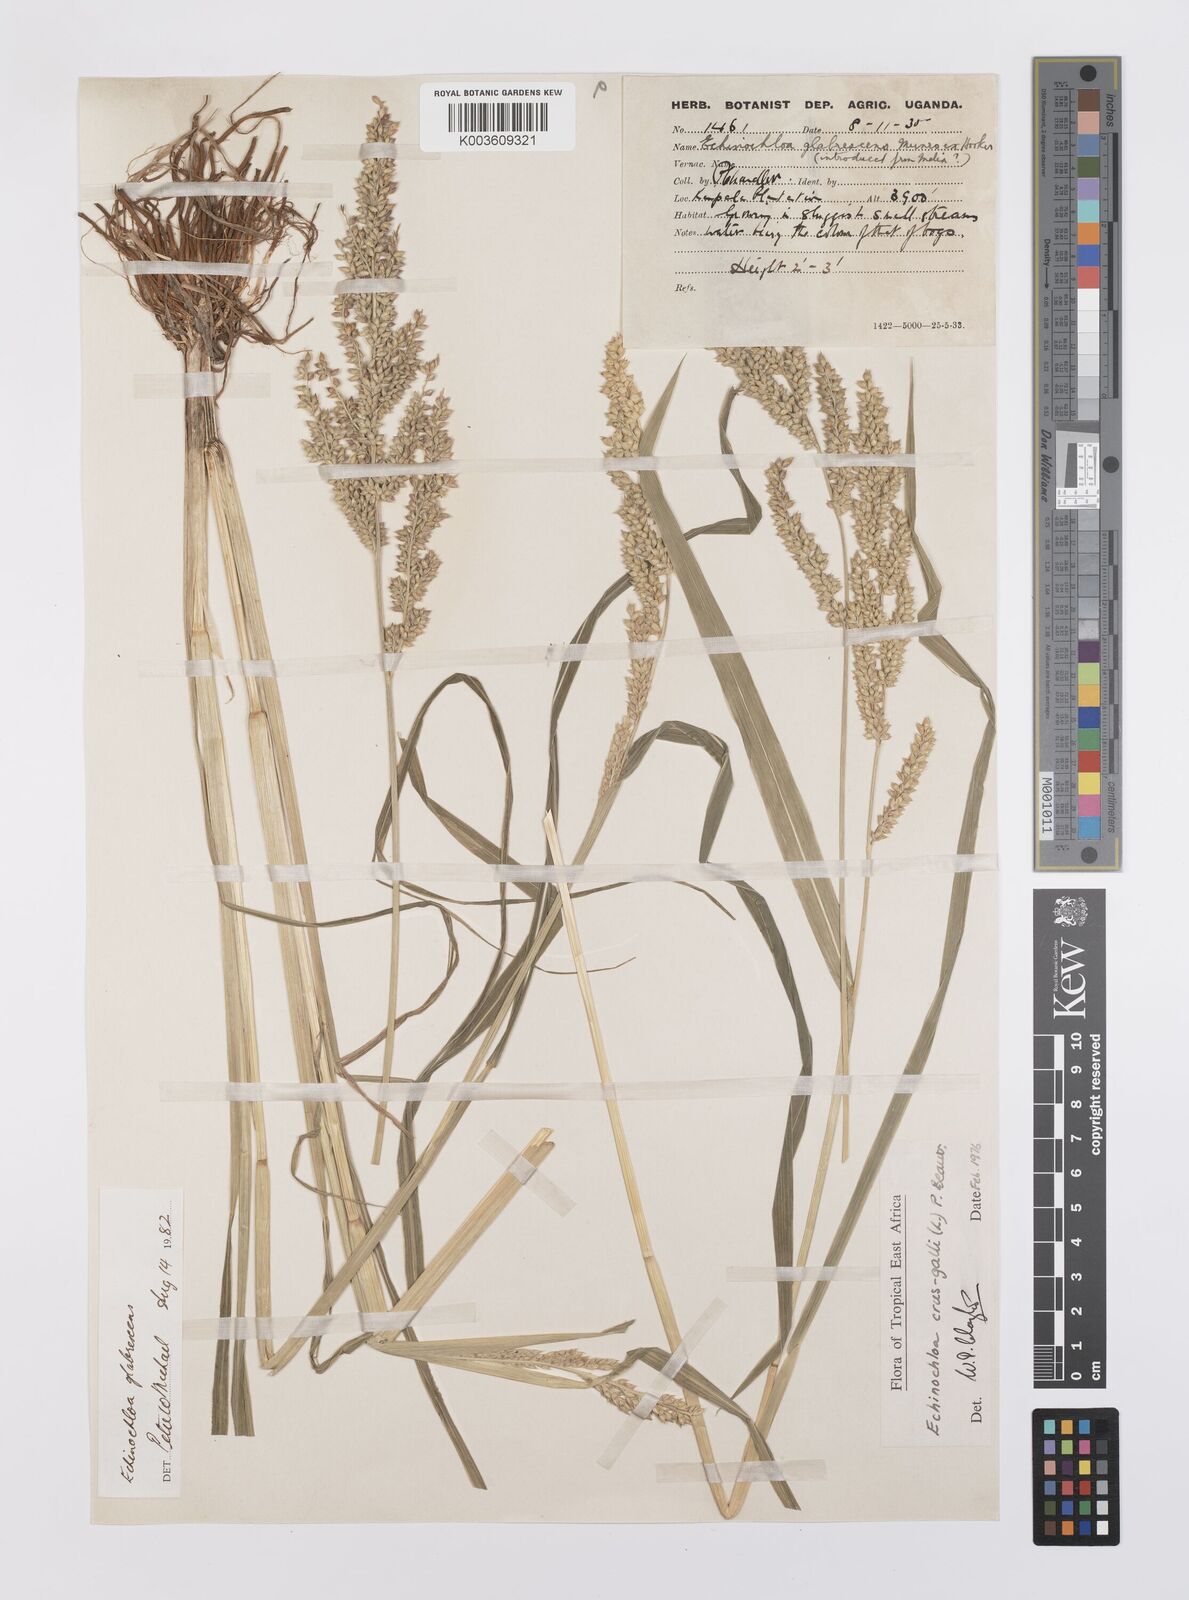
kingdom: Plantae
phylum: Tracheophyta
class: Liliopsida
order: Poales
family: Poaceae
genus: Echinochloa
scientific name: Echinochloa crus-galli
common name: Cockspur
